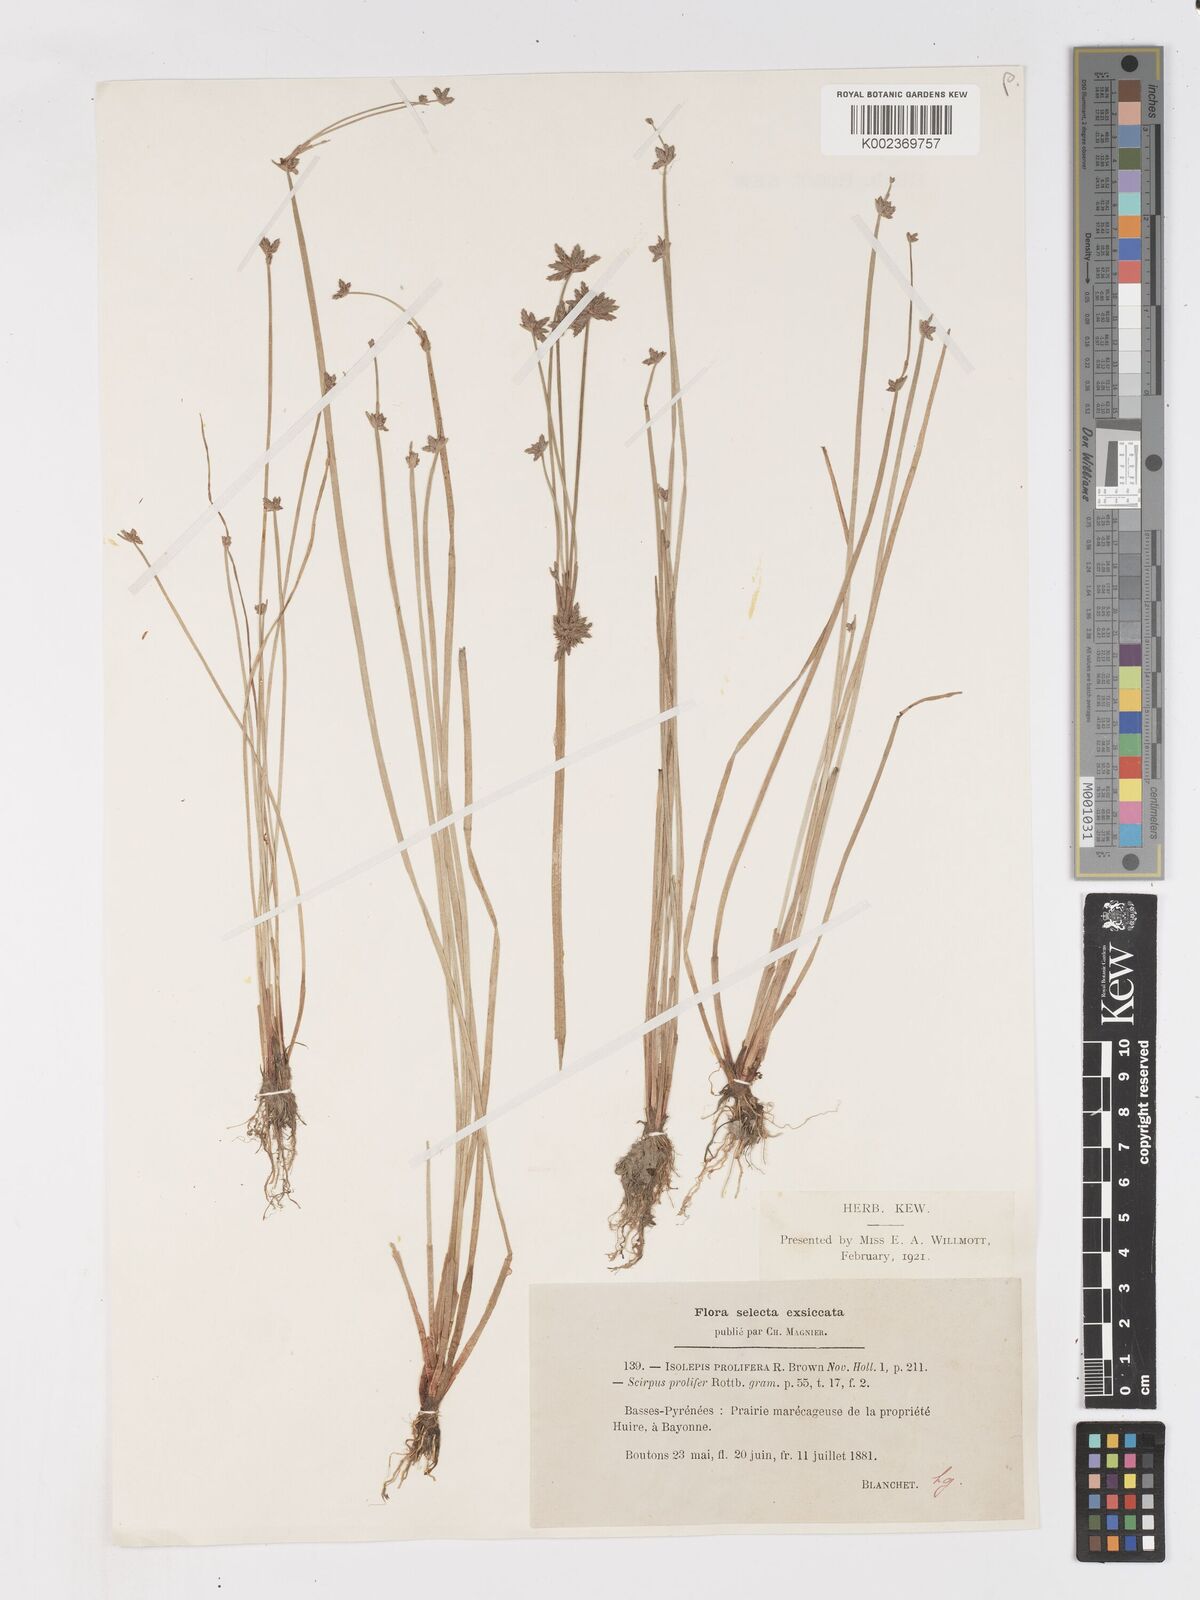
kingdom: Plantae
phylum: Tracheophyta
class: Liliopsida
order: Poales
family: Cyperaceae
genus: Isolepis
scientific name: Isolepis prolifera
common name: Proliferating bulrush
